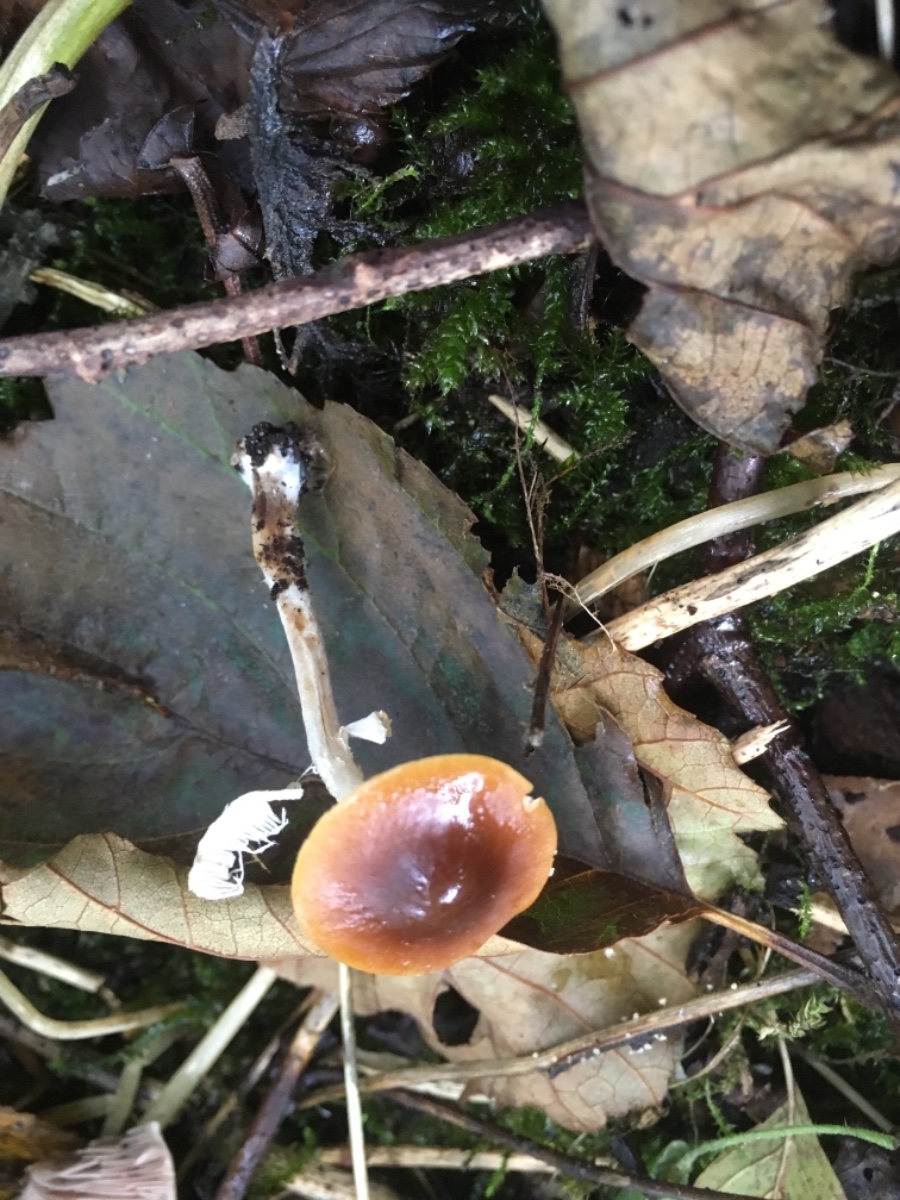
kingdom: Fungi
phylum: Basidiomycota
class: Agaricomycetes
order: Agaricales
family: Bolbitiaceae
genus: Conocybe
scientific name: Conocybe arrhenii
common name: ring-dansehat
